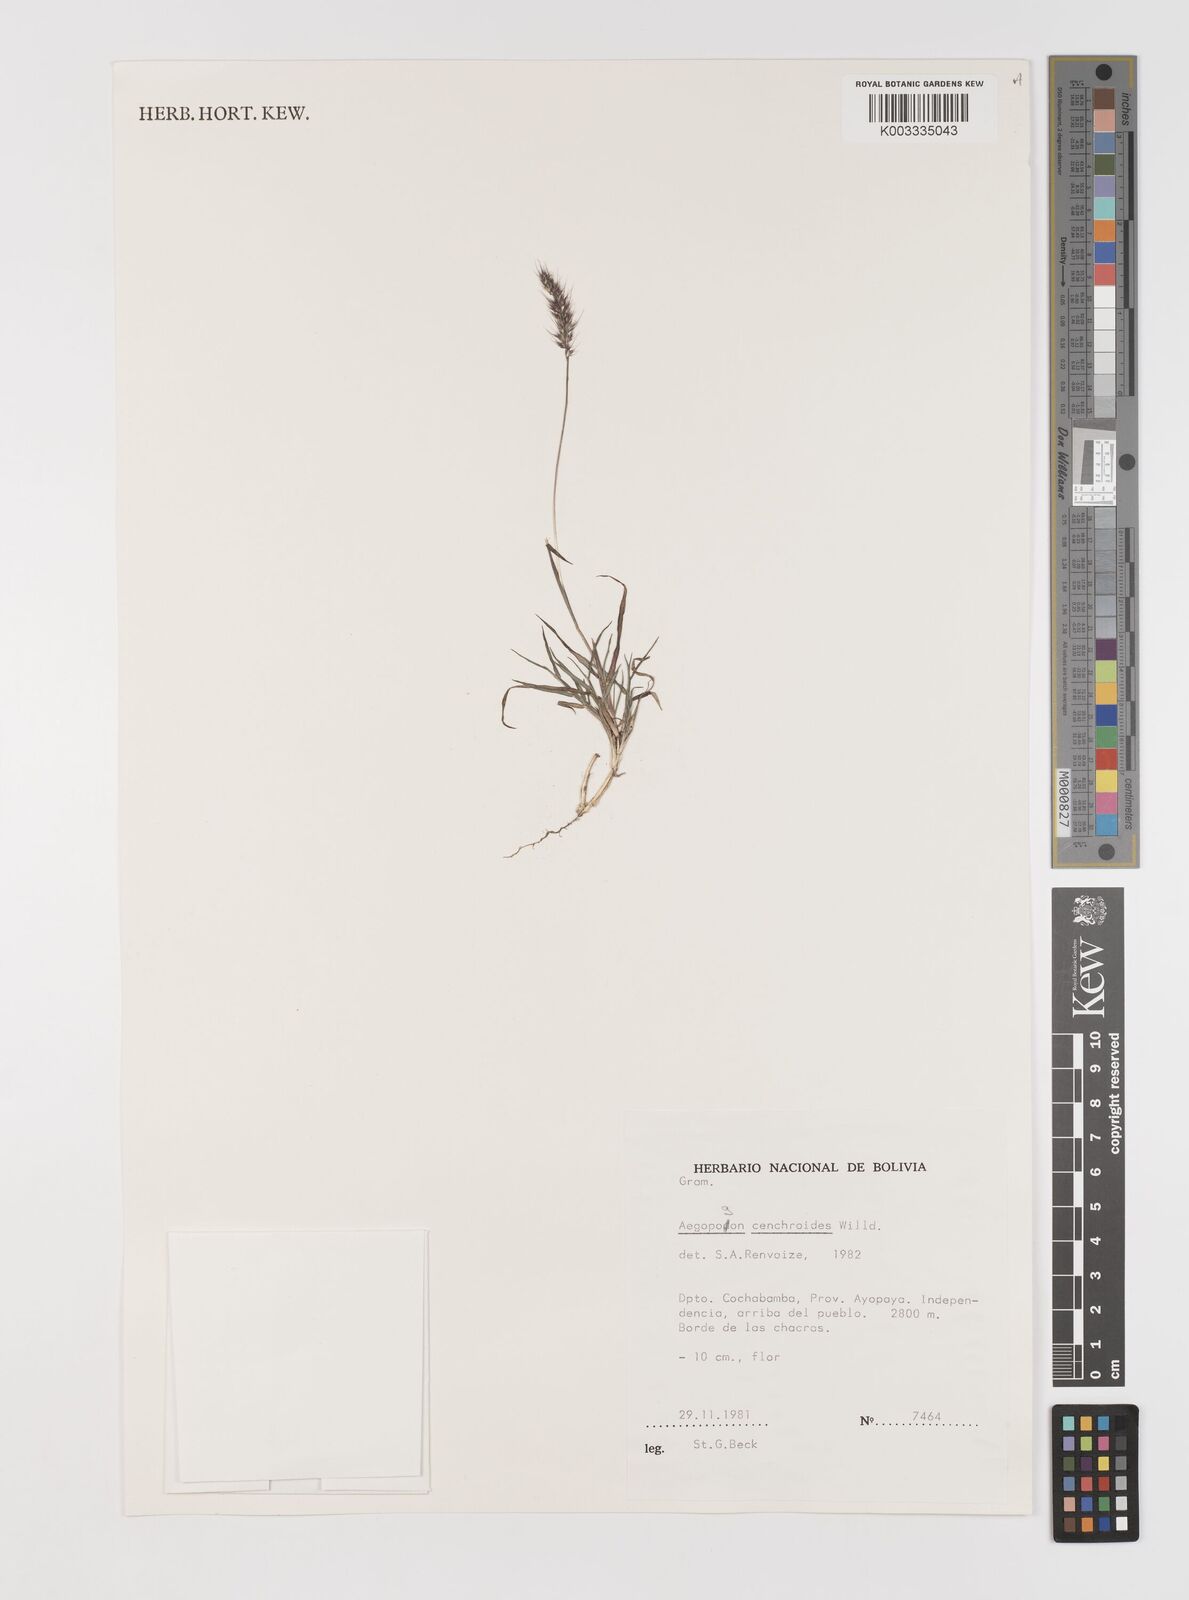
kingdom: Plantae
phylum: Tracheophyta
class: Liliopsida
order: Poales
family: Poaceae
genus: Muhlenbergia
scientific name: Muhlenbergia cenchroides
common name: Relaxgrass
